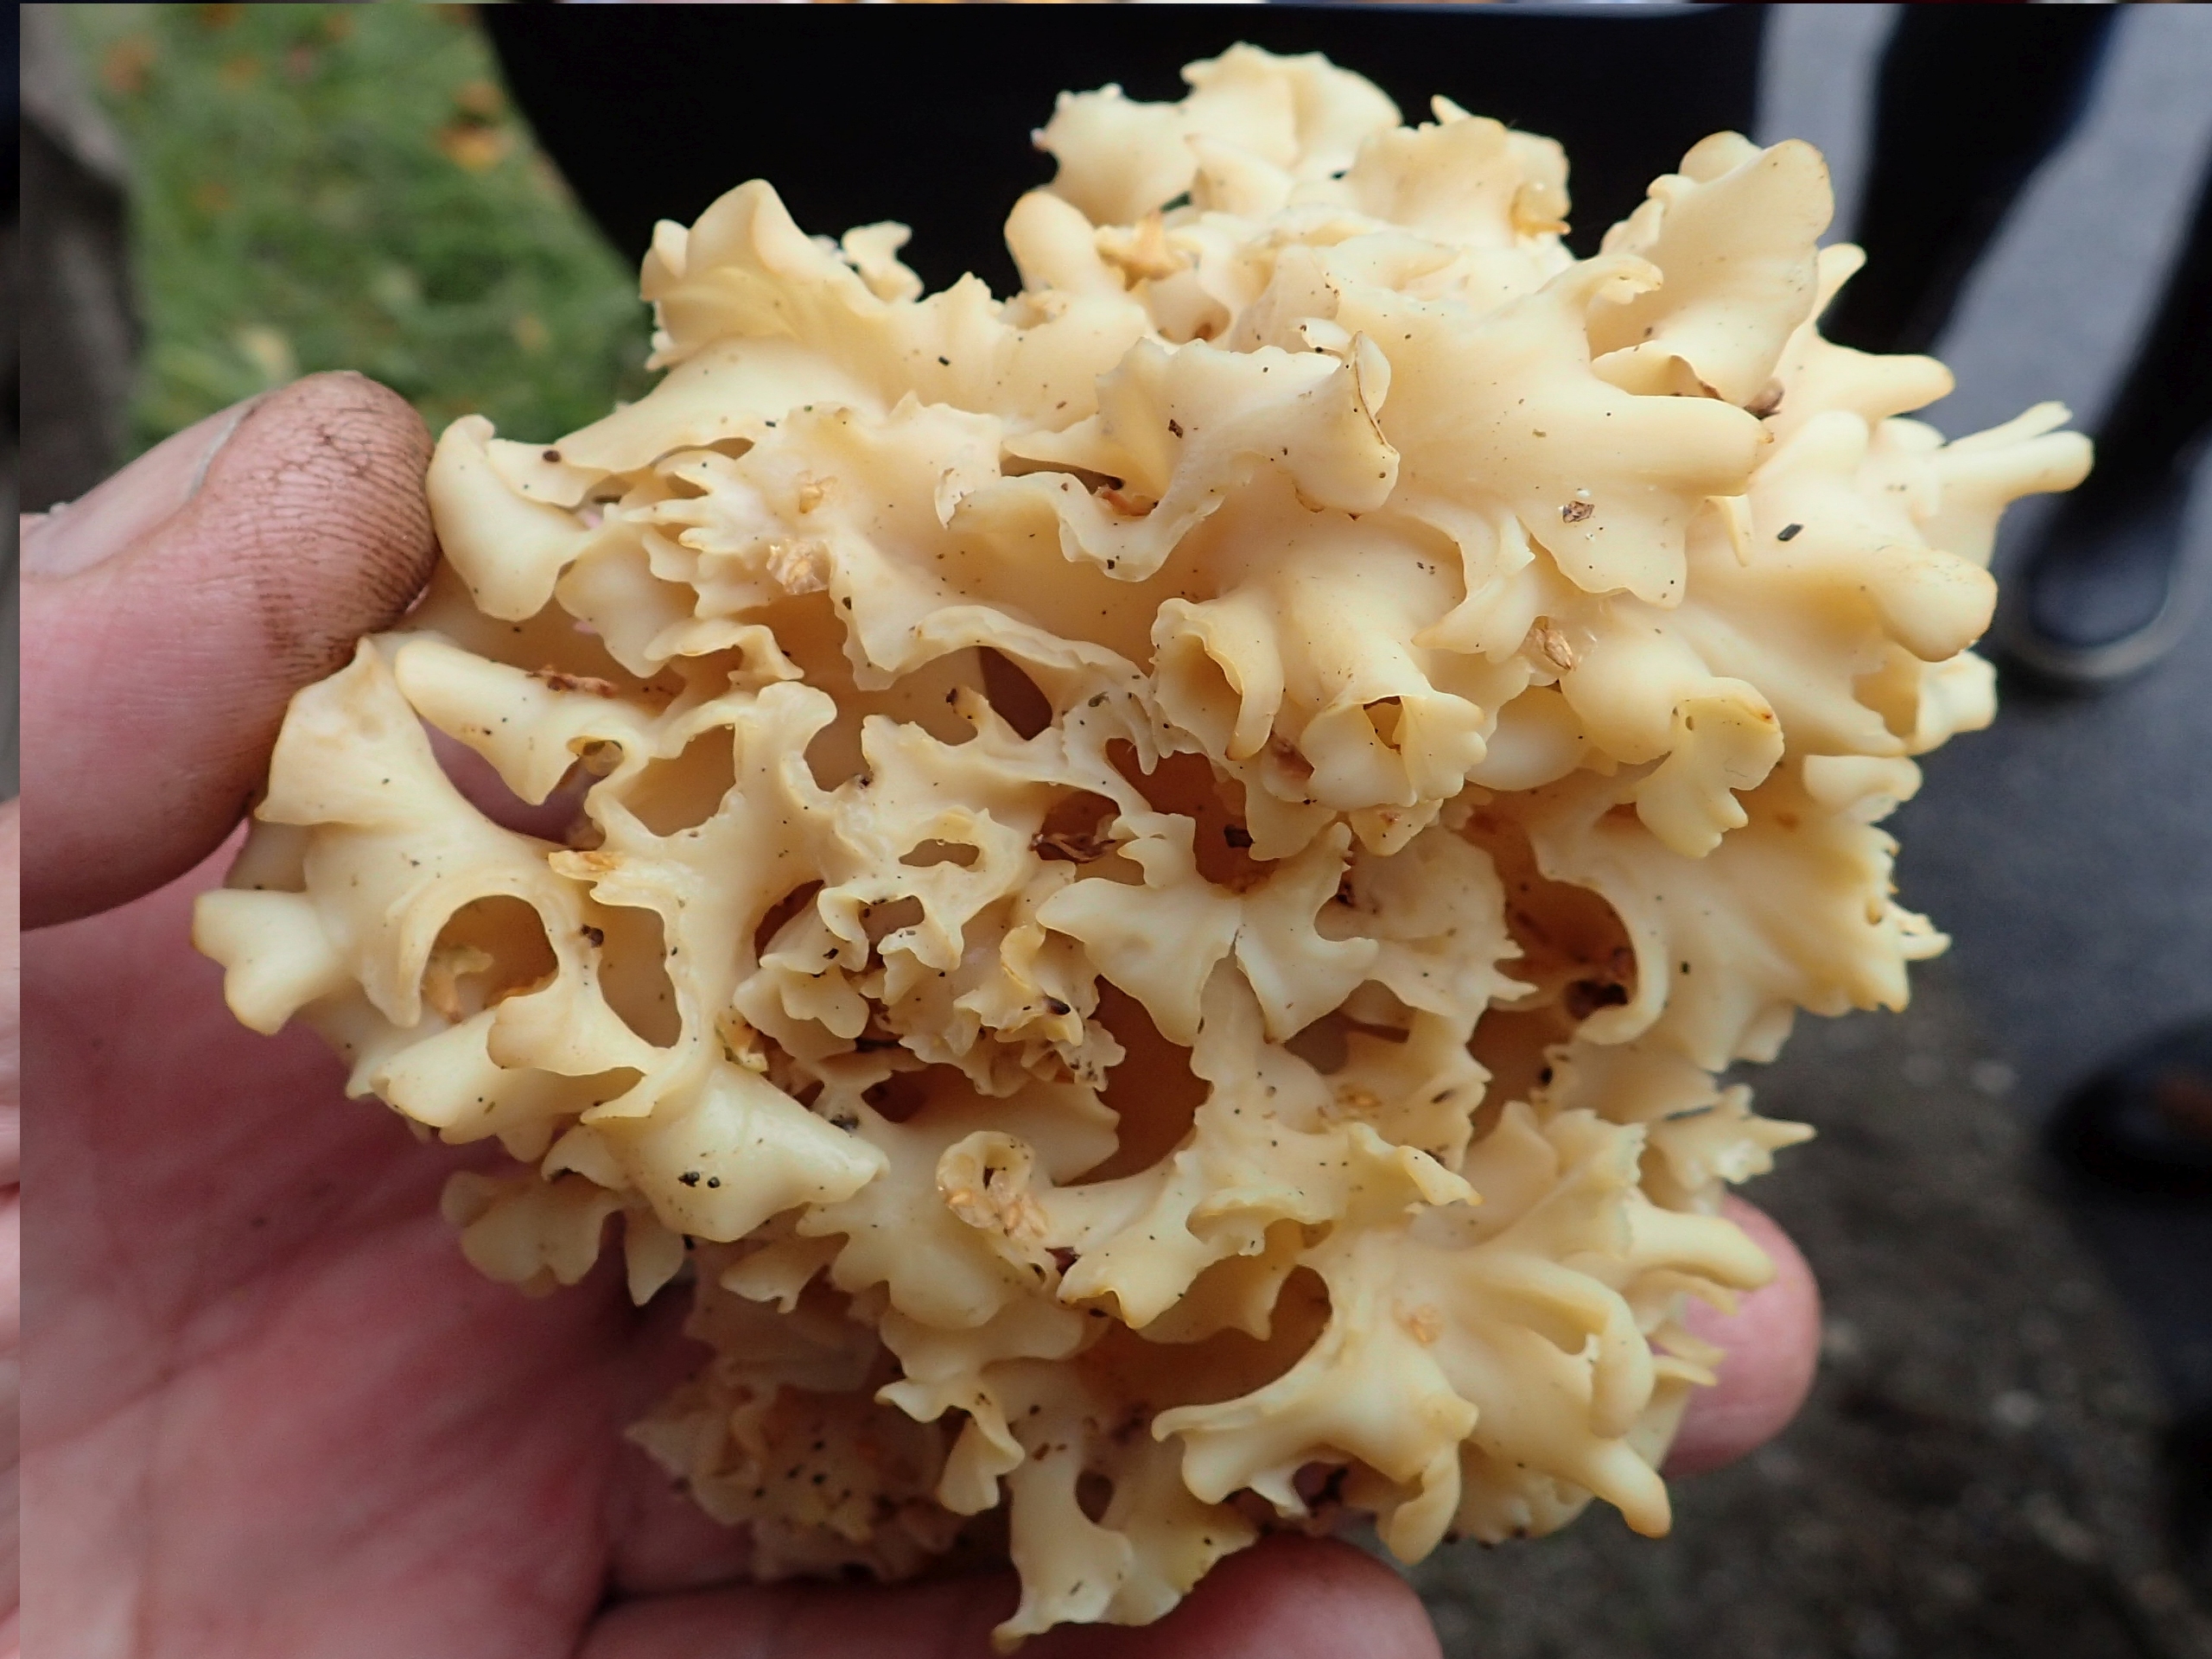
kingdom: Fungi
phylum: Basidiomycota
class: Agaricomycetes
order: Polyporales
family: Sparassidaceae
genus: Sparassis
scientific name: Sparassis crispa
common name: Kruset blomkålssvamp
